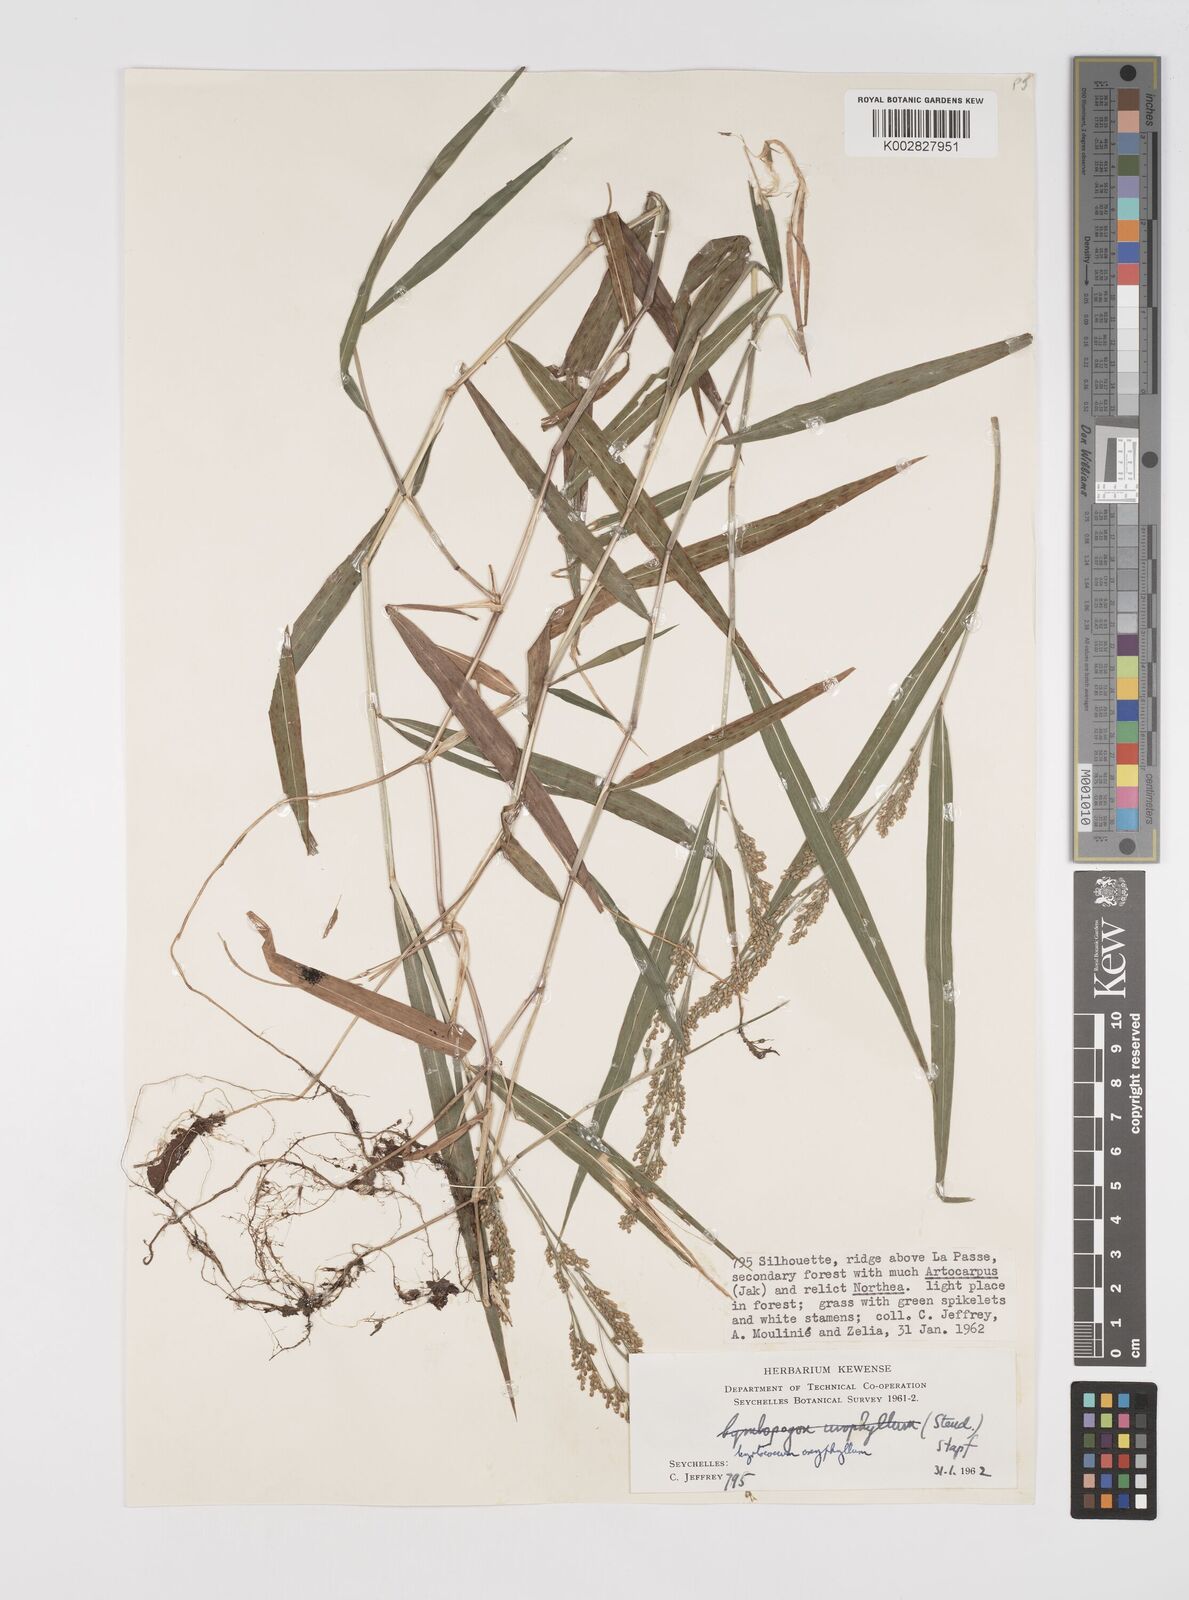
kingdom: Plantae
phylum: Tracheophyta
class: Liliopsida
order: Poales
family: Poaceae
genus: Cyrtococcum
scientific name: Cyrtococcum oxyphyllum
